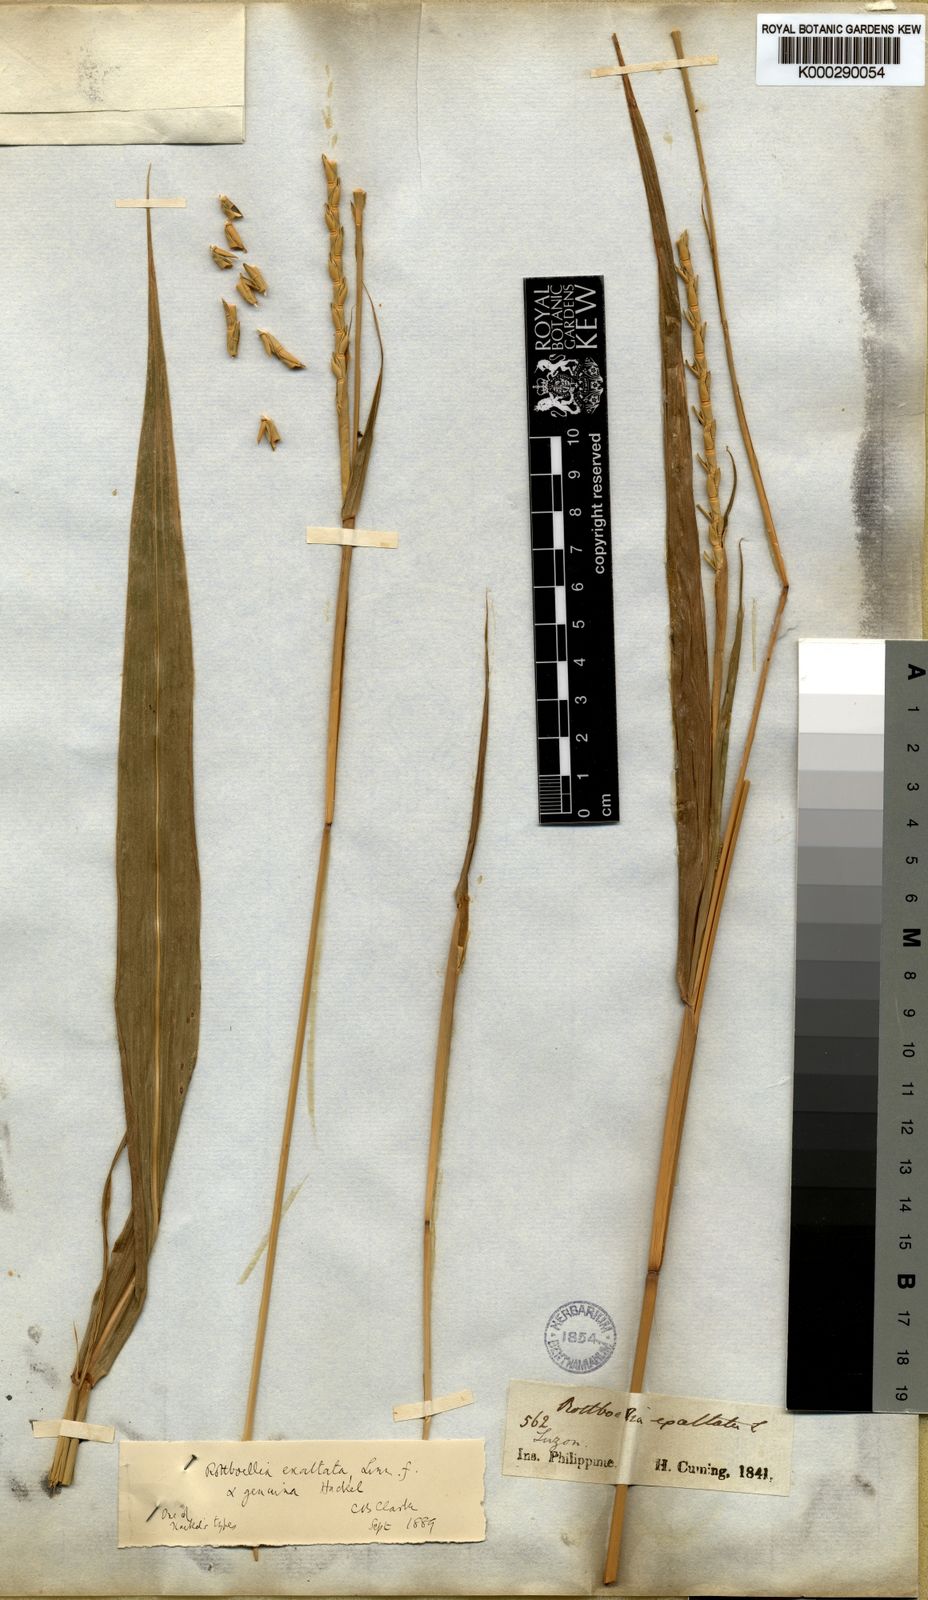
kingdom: Plantae
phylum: Tracheophyta
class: Liliopsida
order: Poales
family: Poaceae
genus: Rottboellia
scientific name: Rottboellia cochinchinensis
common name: Itchgrass
